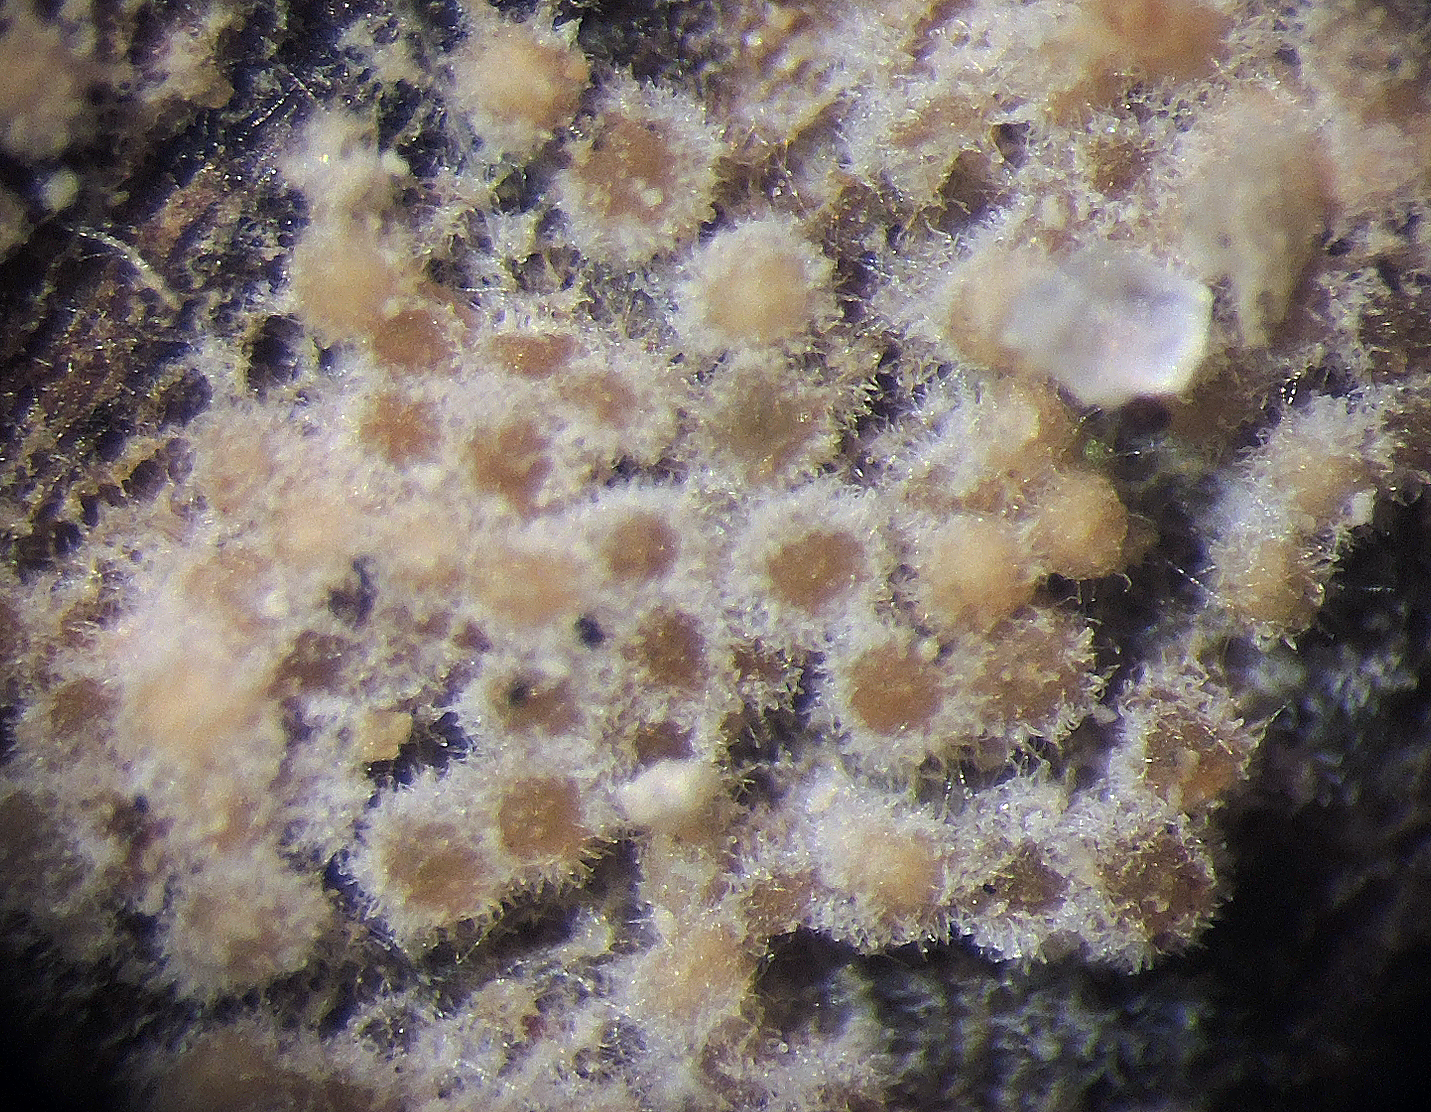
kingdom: Fungi
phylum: Ascomycota
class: Sordariomycetes
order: Hypocreales
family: Bionectriaceae
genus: Nectriopsis
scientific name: Nectriopsis
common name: snyltespind
